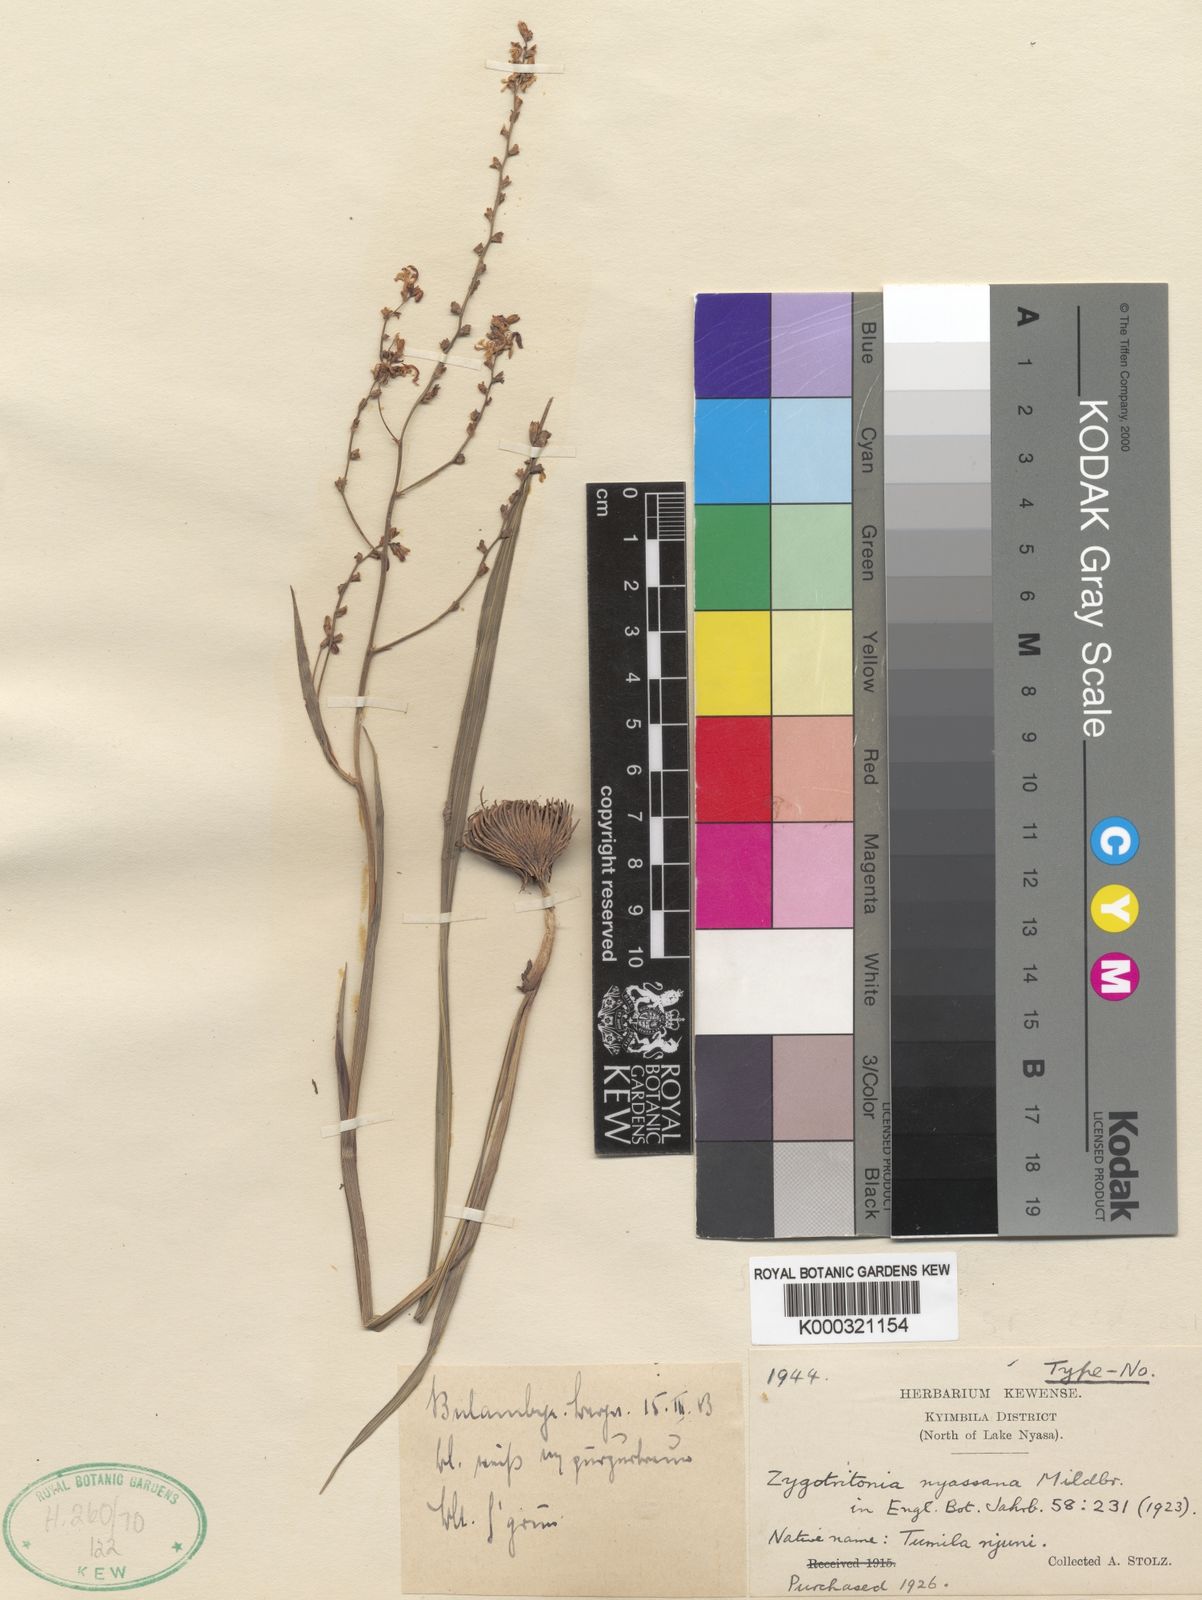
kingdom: Plantae
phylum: Tracheophyta
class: Liliopsida
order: Asparagales
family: Iridaceae
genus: Zygotritonia
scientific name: Zygotritonia nyassana
